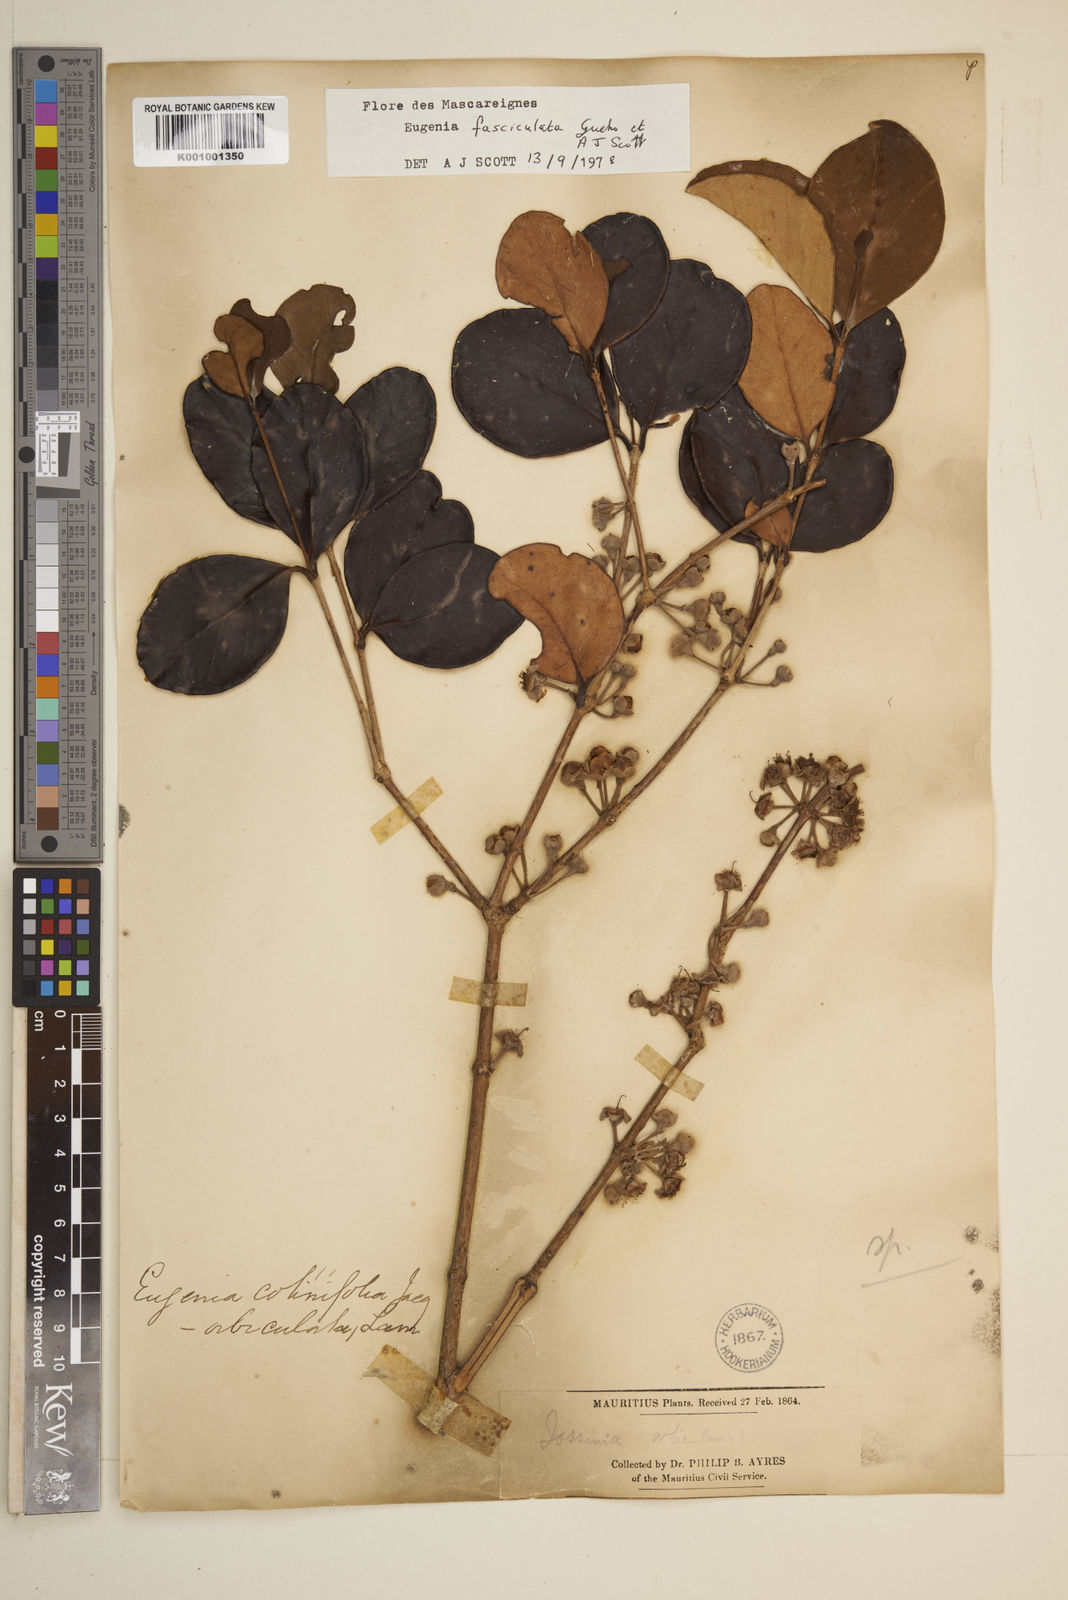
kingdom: Plantae
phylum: Tracheophyta
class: Magnoliopsida
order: Myrtales
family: Myrtaceae
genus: Eugenia
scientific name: Eugenia roxburghii
